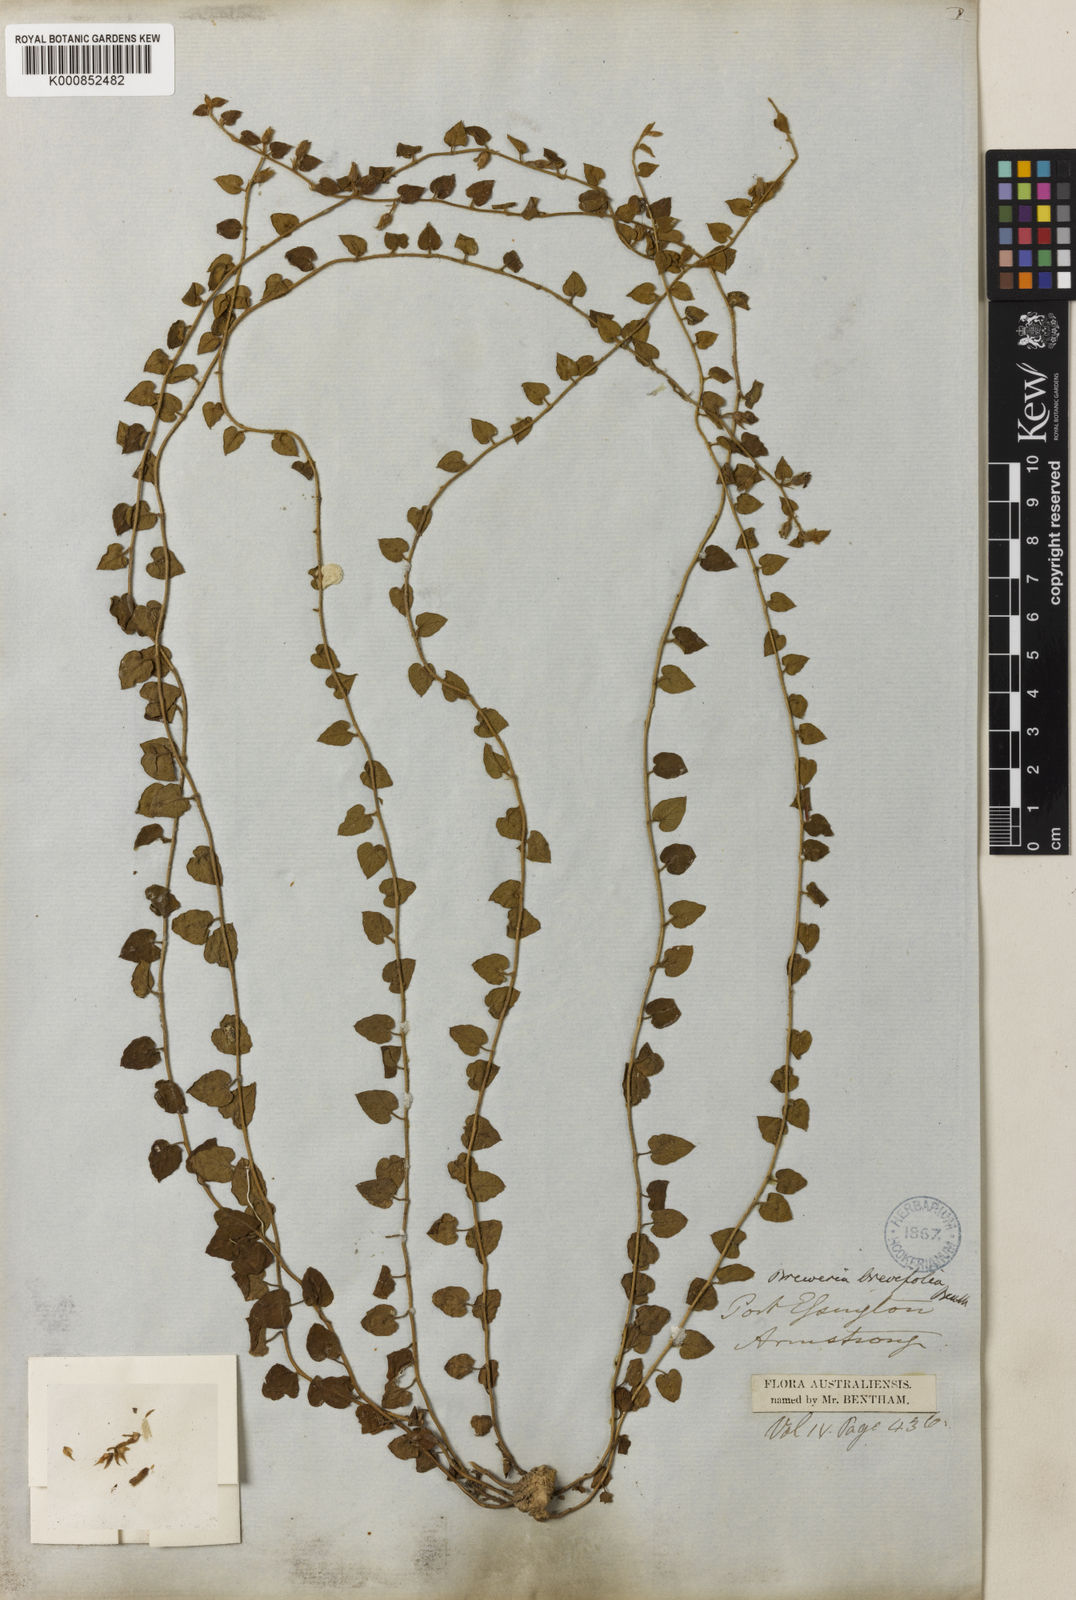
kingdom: Plantae
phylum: Tracheophyta
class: Magnoliopsida
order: Solanales
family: Convolvulaceae
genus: Bonamia
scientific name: Bonamia brevifolia
